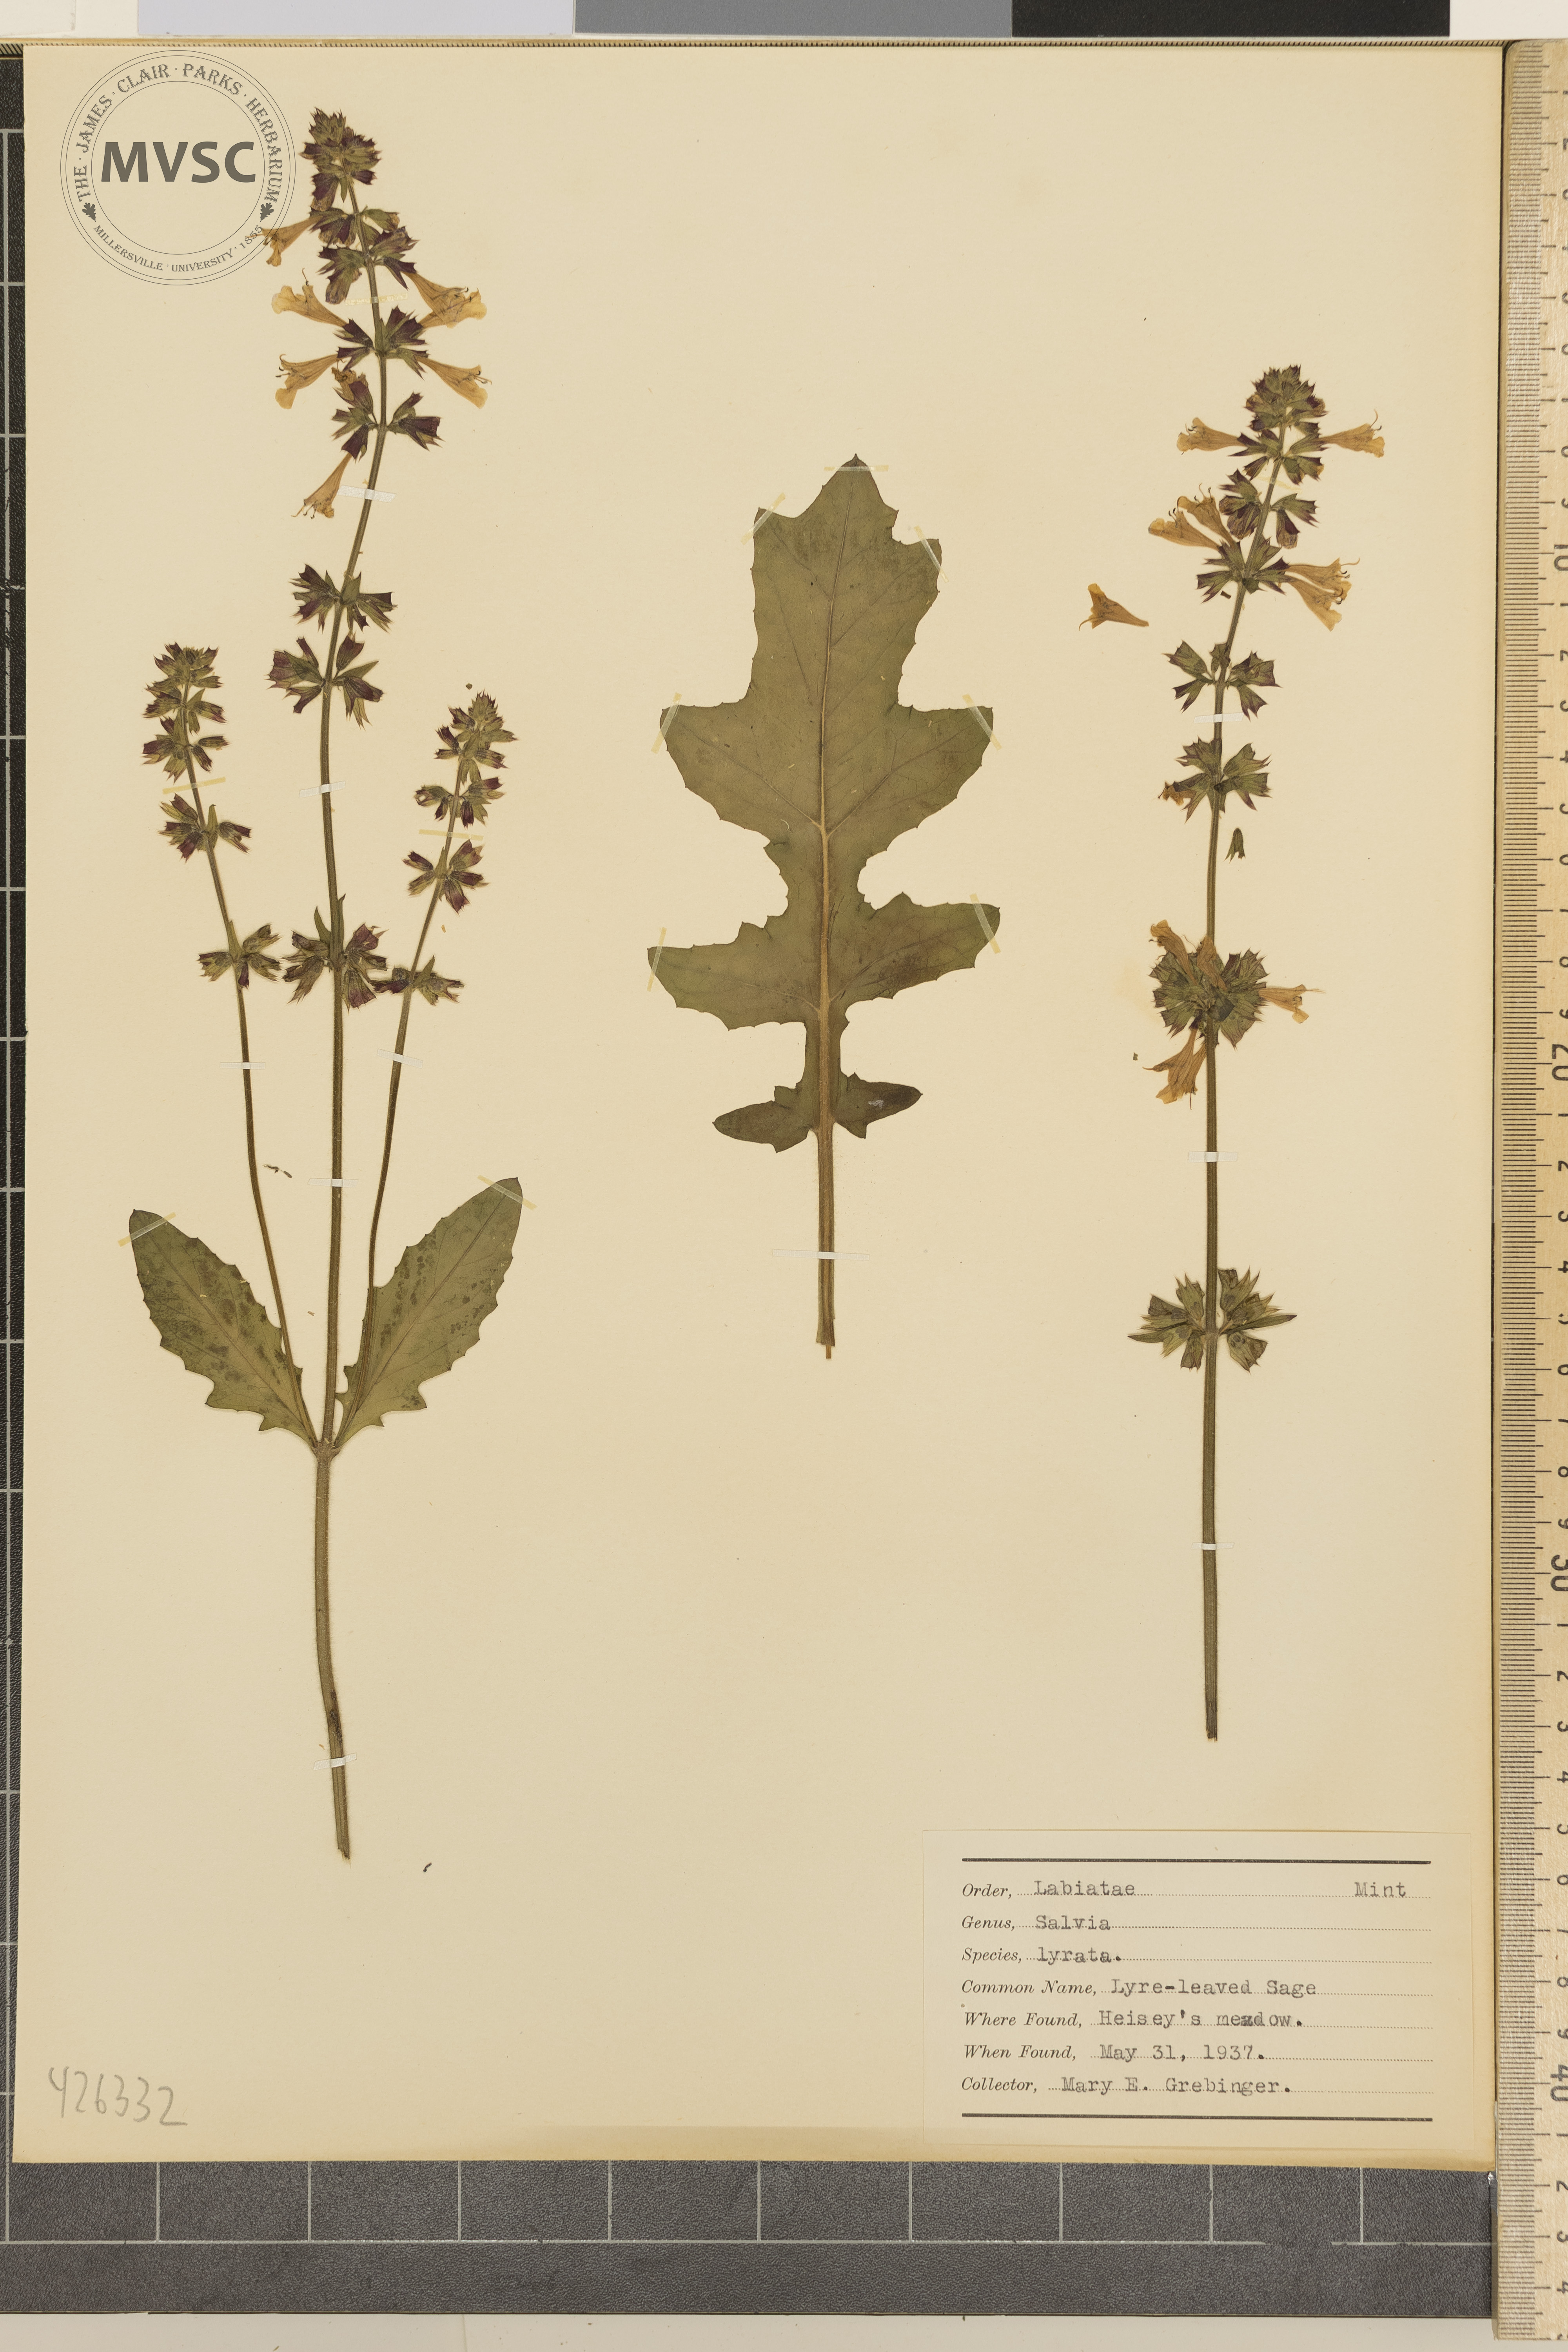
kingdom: Plantae
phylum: Tracheophyta
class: Magnoliopsida
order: Lamiales
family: Lamiaceae
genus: Salvia
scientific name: Salvia lyrata
